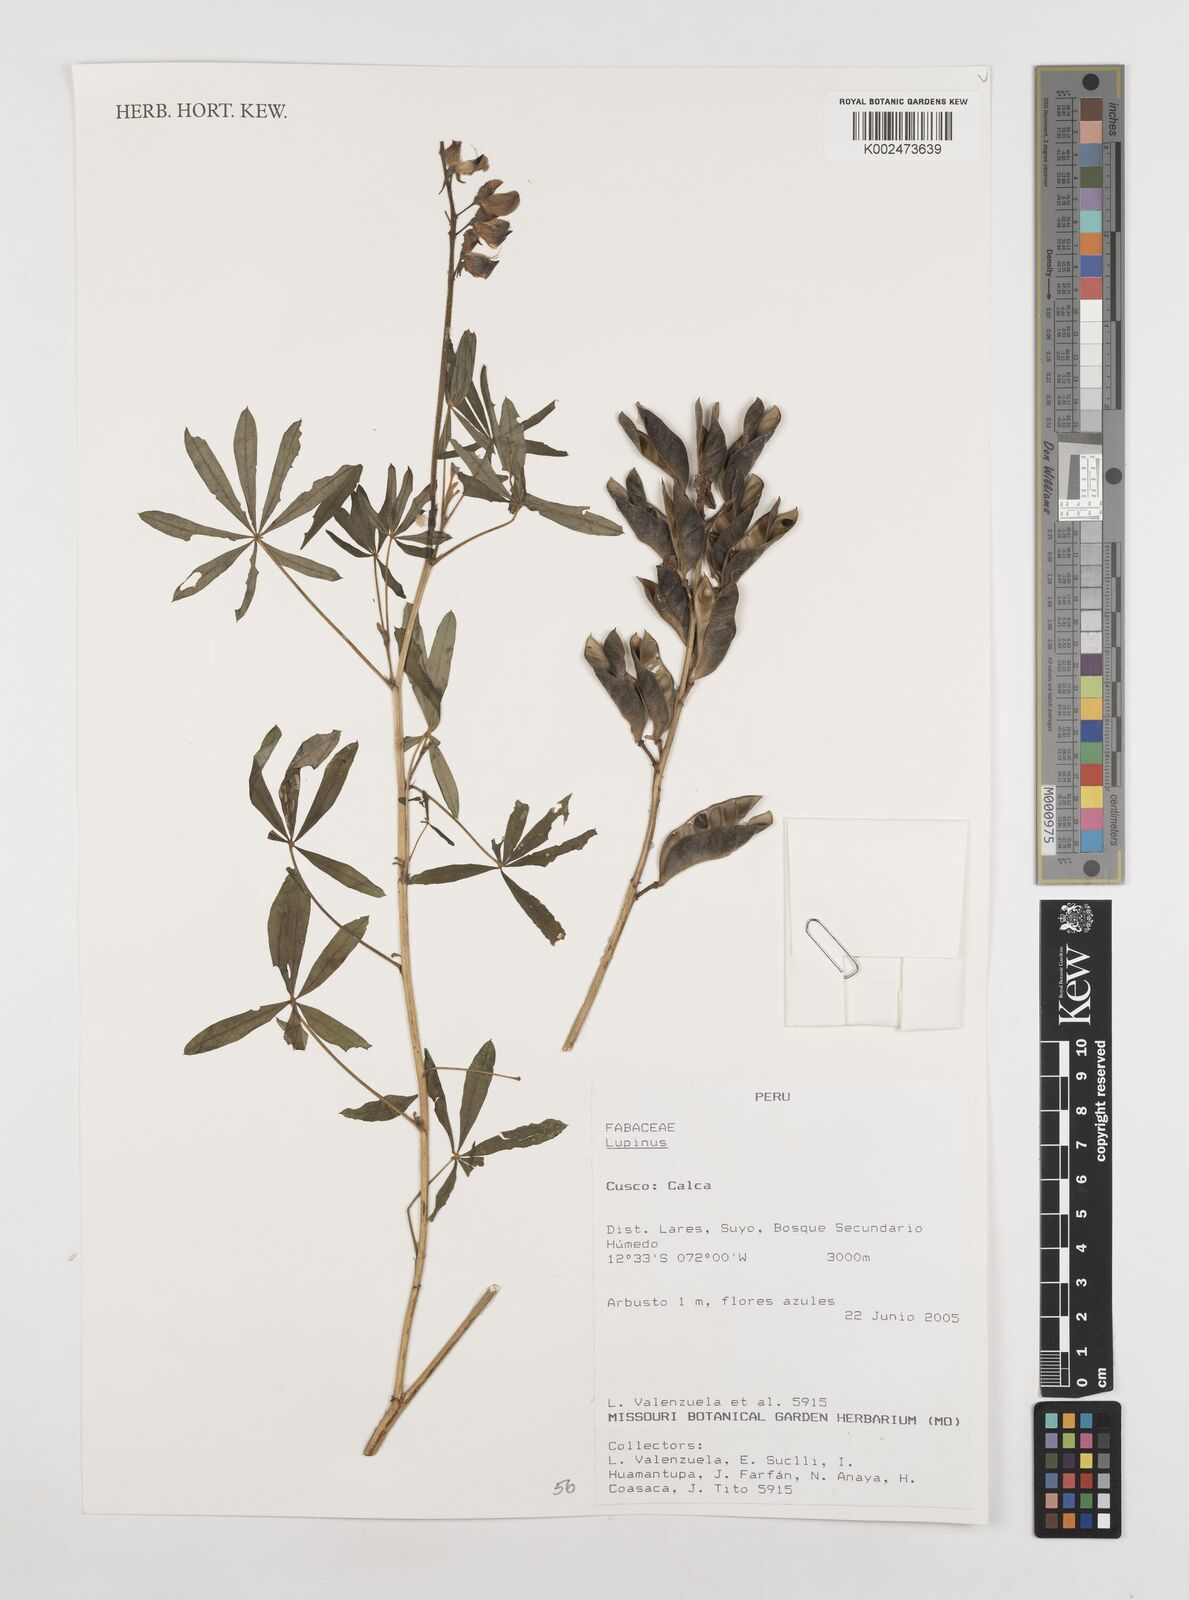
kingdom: Plantae
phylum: Tracheophyta
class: Magnoliopsida
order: Fabales
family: Fabaceae
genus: Lupinus
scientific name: Lupinus
